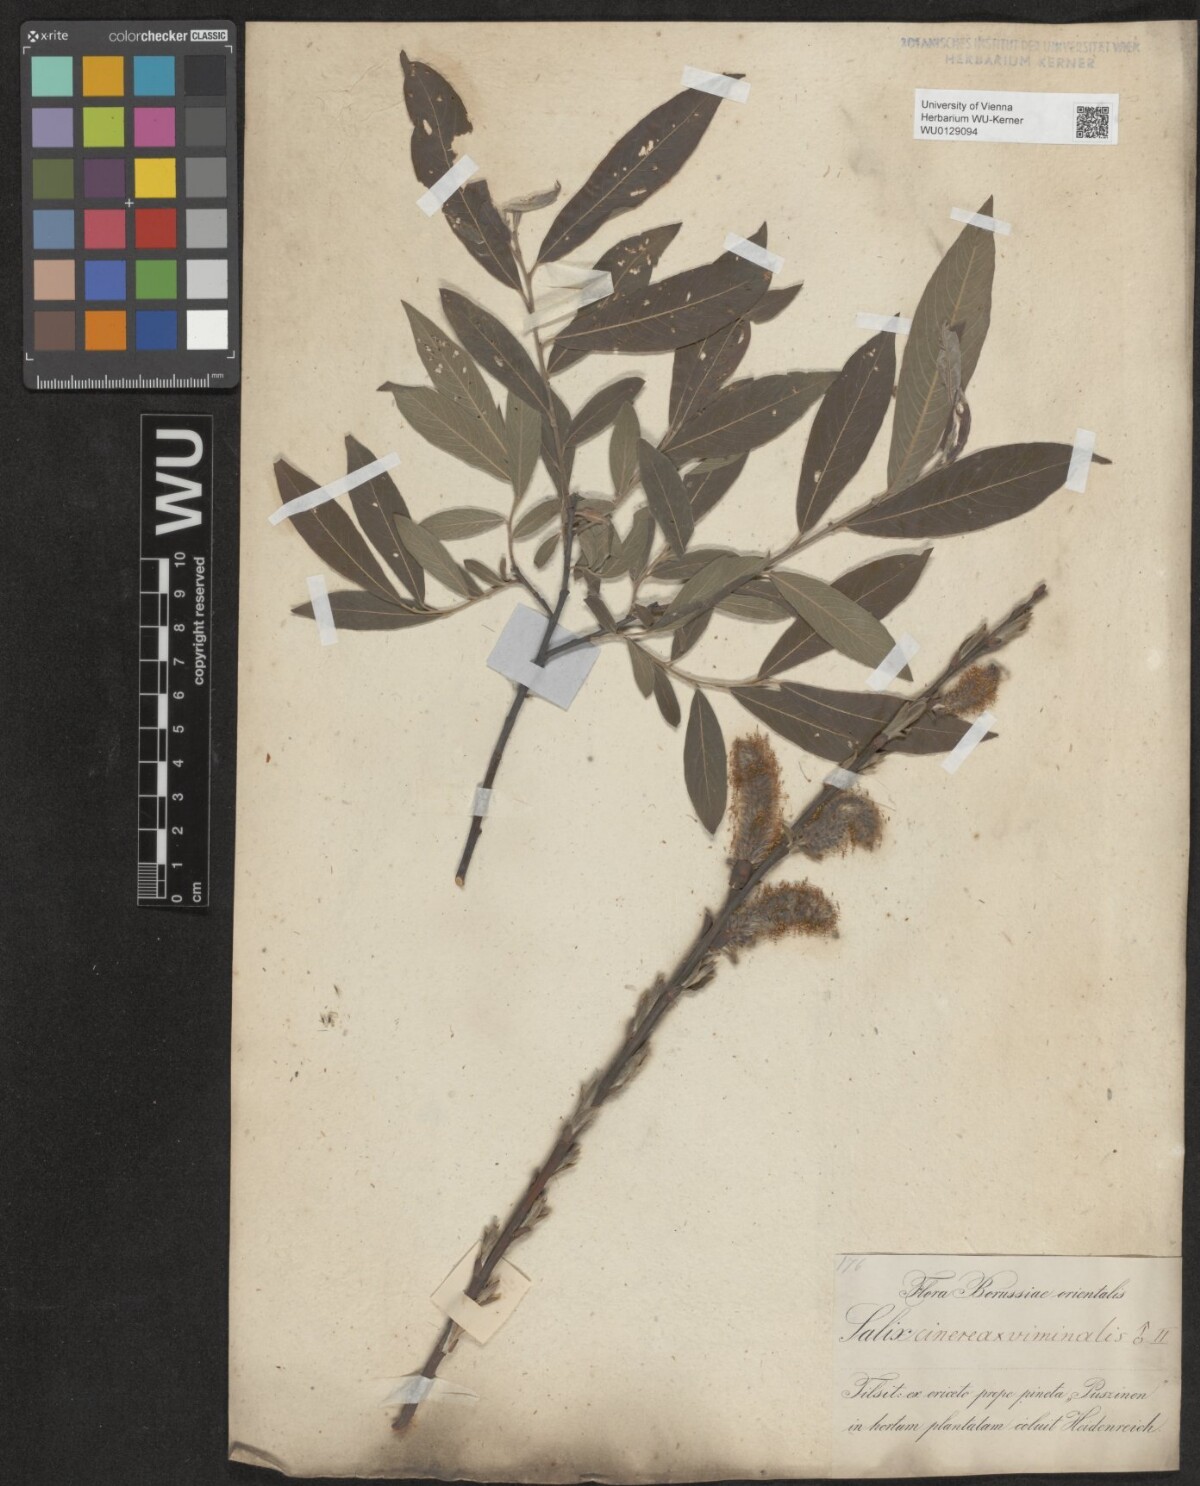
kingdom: Plantae
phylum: Tracheophyta
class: Magnoliopsida
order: Malpighiales
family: Salicaceae
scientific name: Salicaceae
